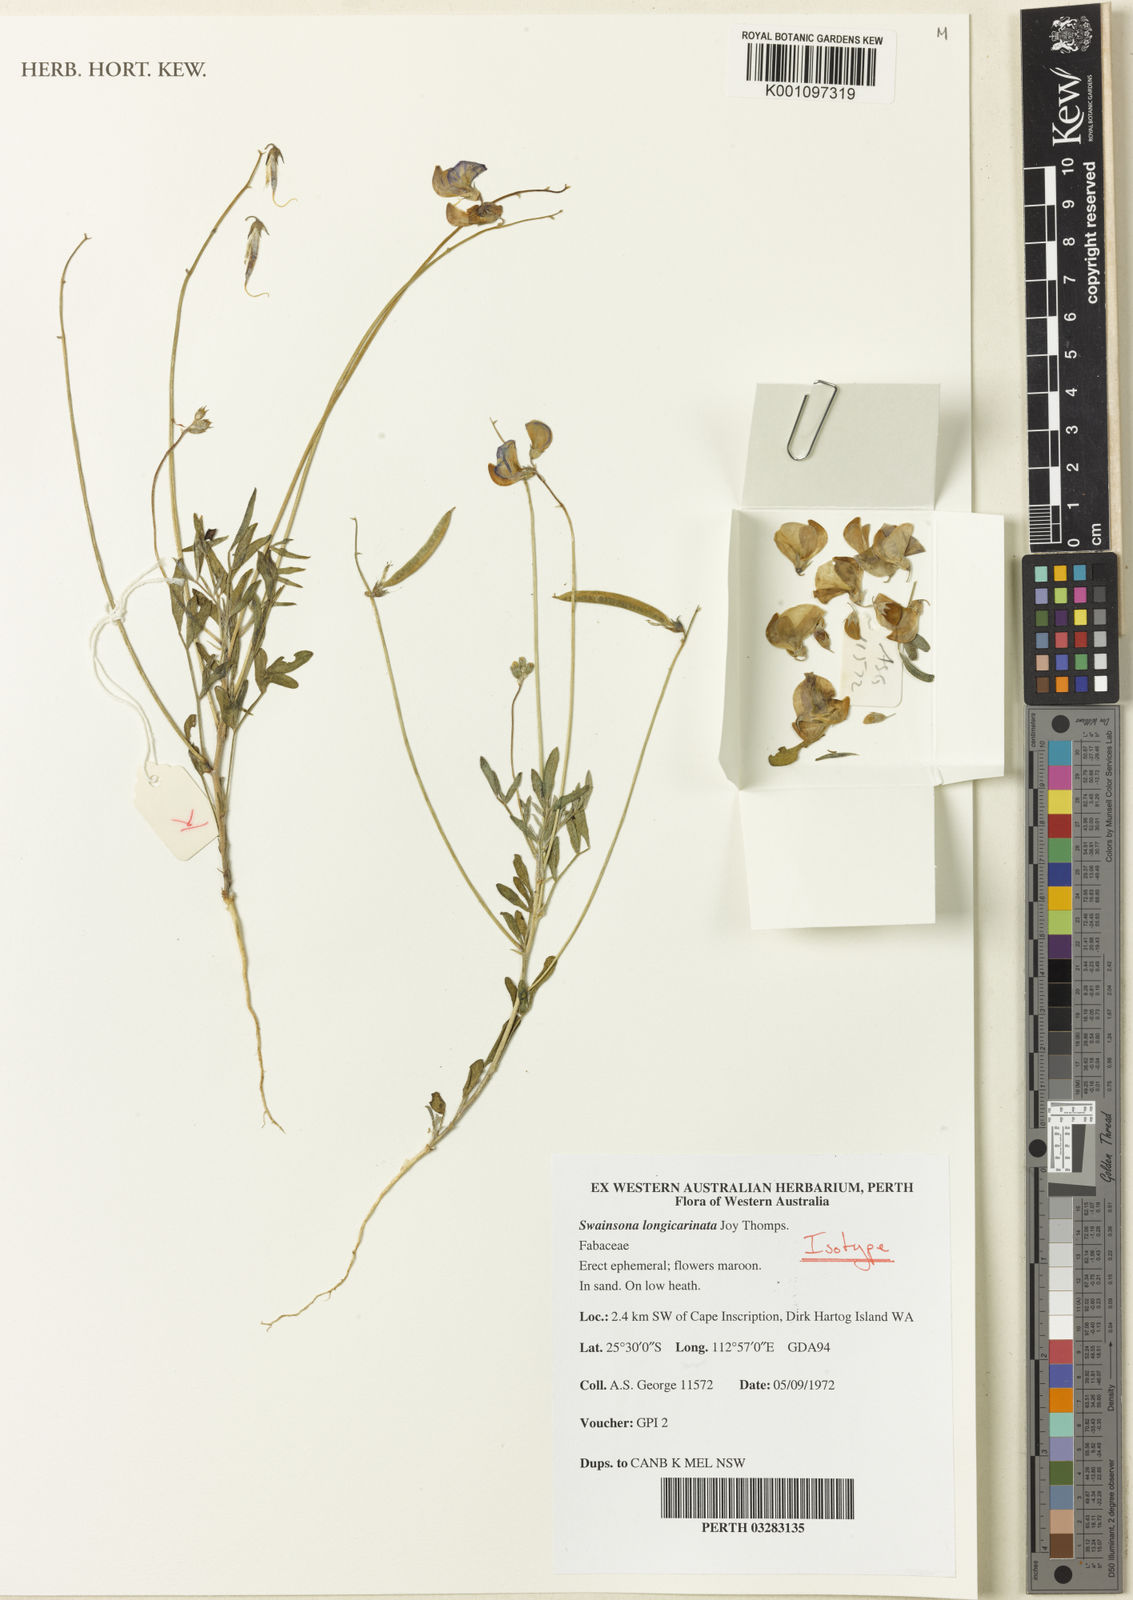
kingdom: Plantae
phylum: Tracheophyta
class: Magnoliopsida
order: Fabales
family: Fabaceae
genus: Swainsona
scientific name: Swainsona longicarinata
